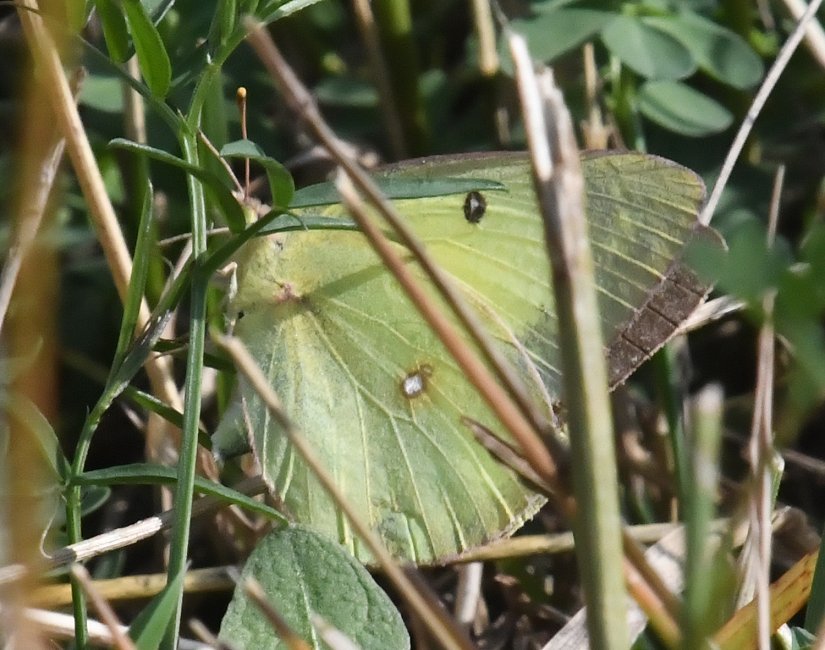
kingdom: Animalia
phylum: Arthropoda
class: Insecta
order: Lepidoptera
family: Pieridae
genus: Colias
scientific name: Colias philodice
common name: Clouded Sulphur
